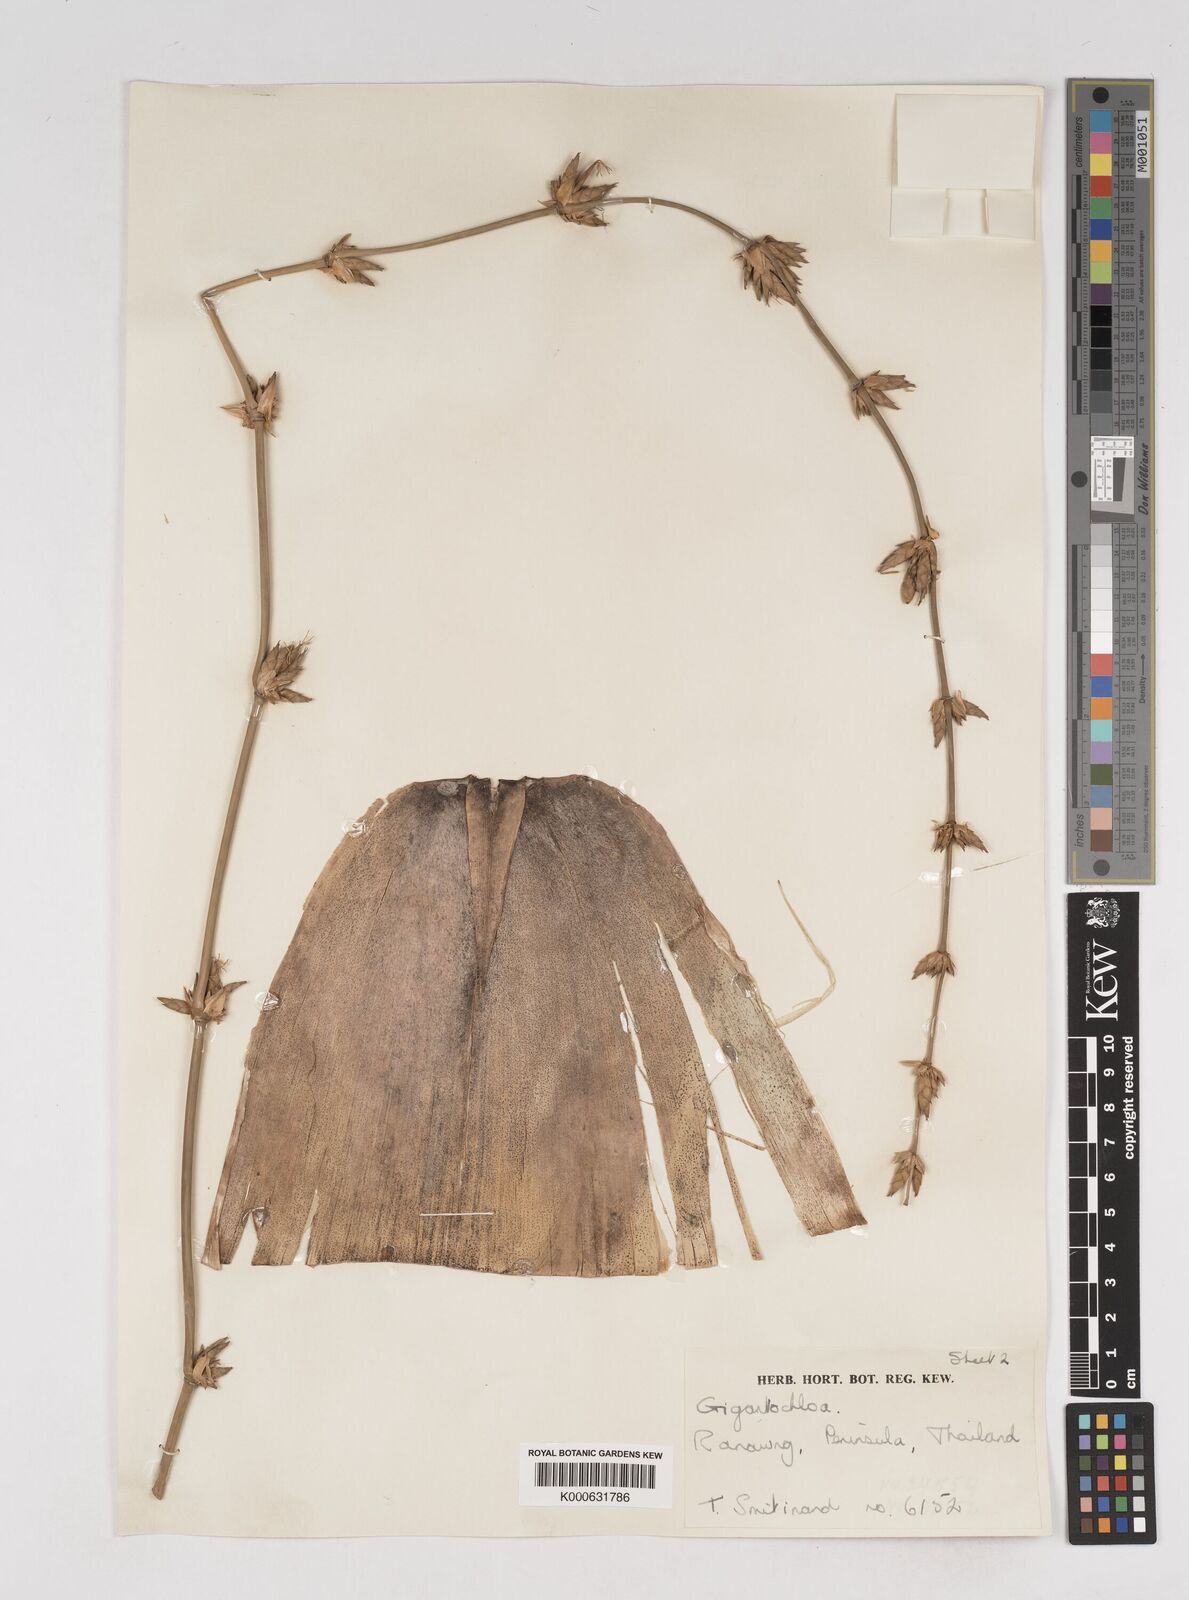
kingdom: Plantae
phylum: Tracheophyta
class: Liliopsida
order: Poales
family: Poaceae
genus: Gigantochloa
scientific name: Gigantochloa
